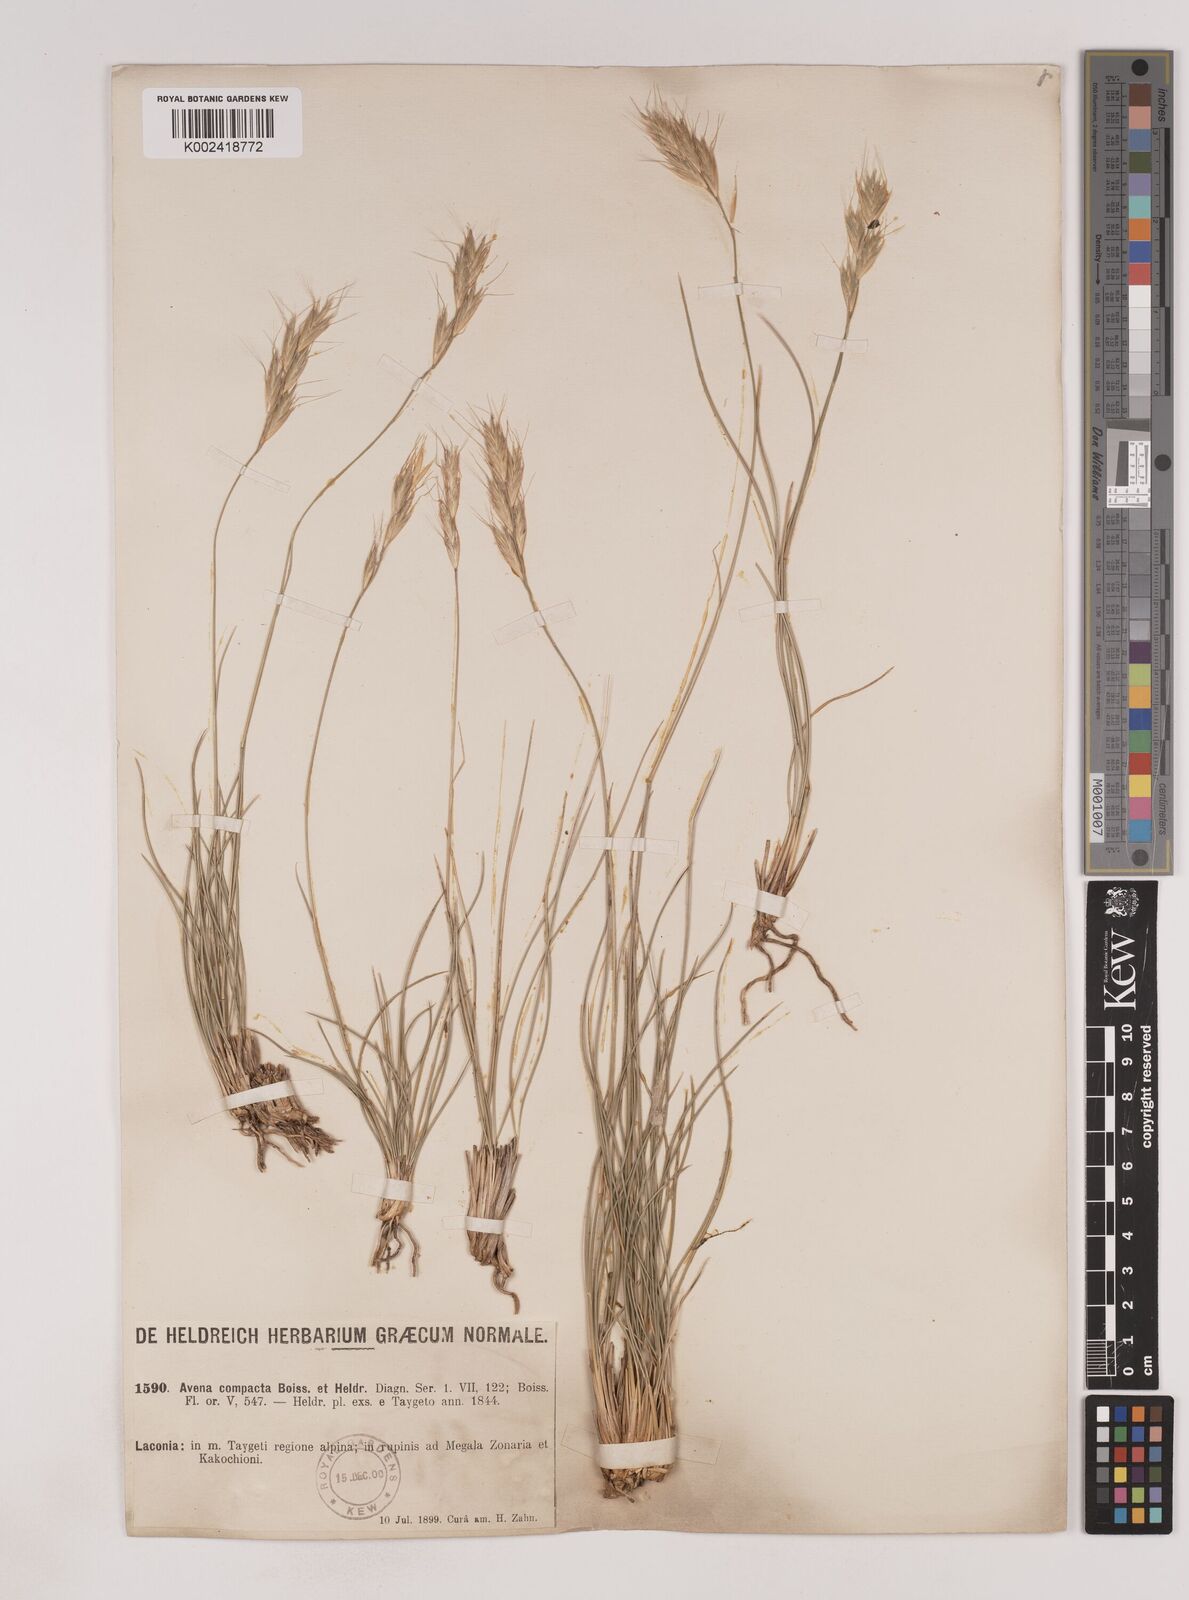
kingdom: Plantae
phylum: Tracheophyta
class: Liliopsida
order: Poales
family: Poaceae
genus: Danthoniastrum
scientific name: Danthoniastrum compactum
